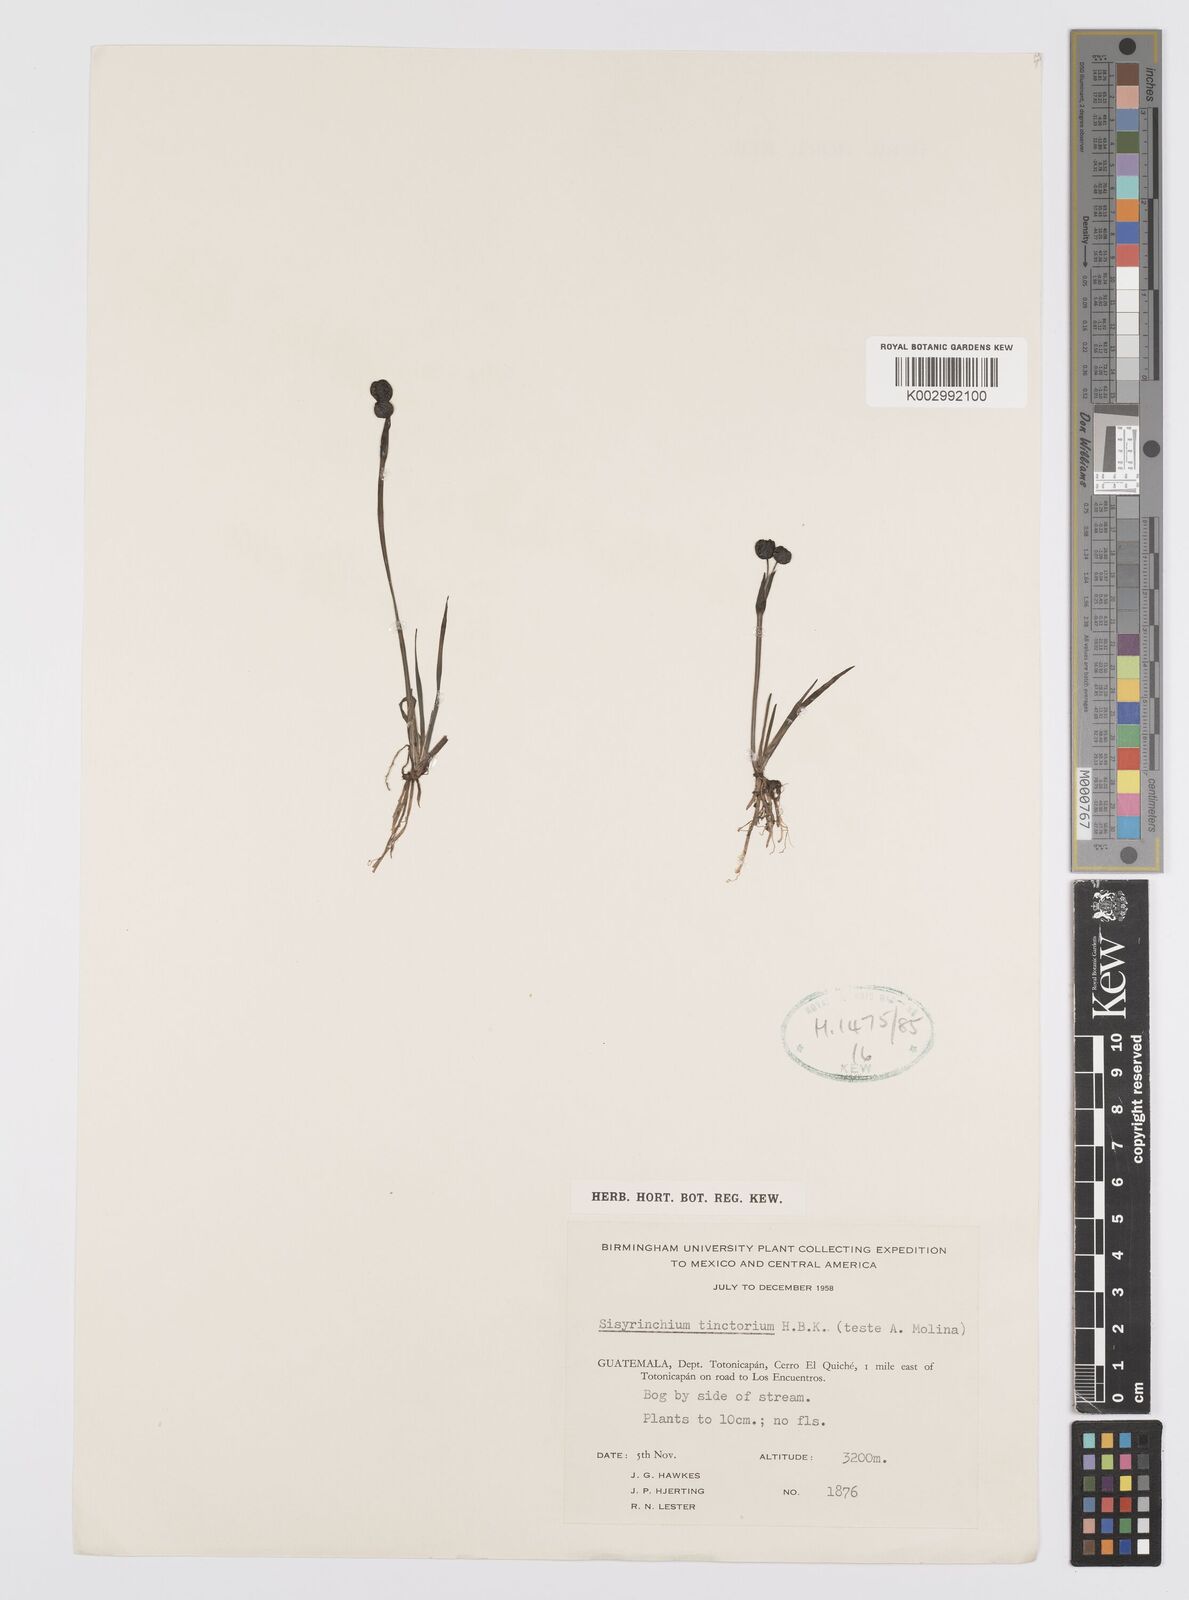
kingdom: Plantae
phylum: Tracheophyta
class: Liliopsida
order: Asparagales
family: Iridaceae
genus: Sisyrinchium
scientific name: Sisyrinchium tinctorium
